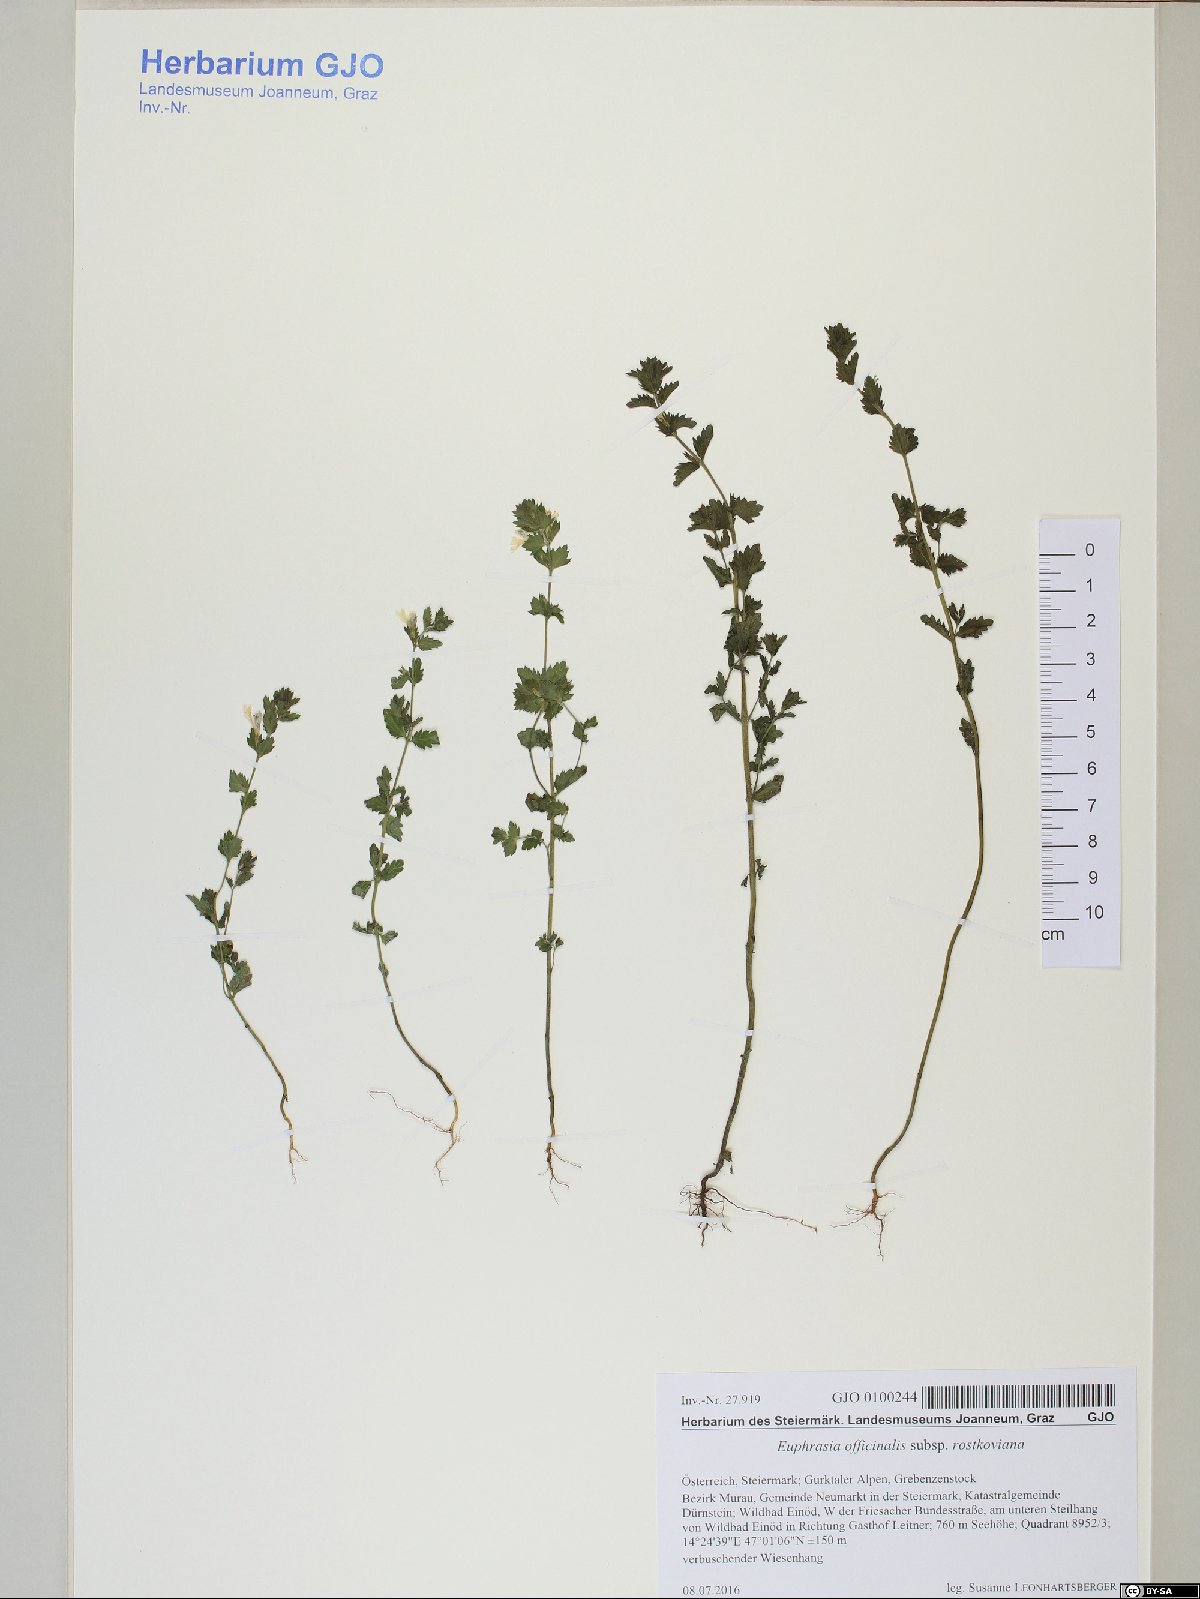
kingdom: Plantae
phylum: Tracheophyta
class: Magnoliopsida
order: Lamiales
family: Orobanchaceae
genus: Euphrasia
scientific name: Euphrasia officinalis
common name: Eyebright
